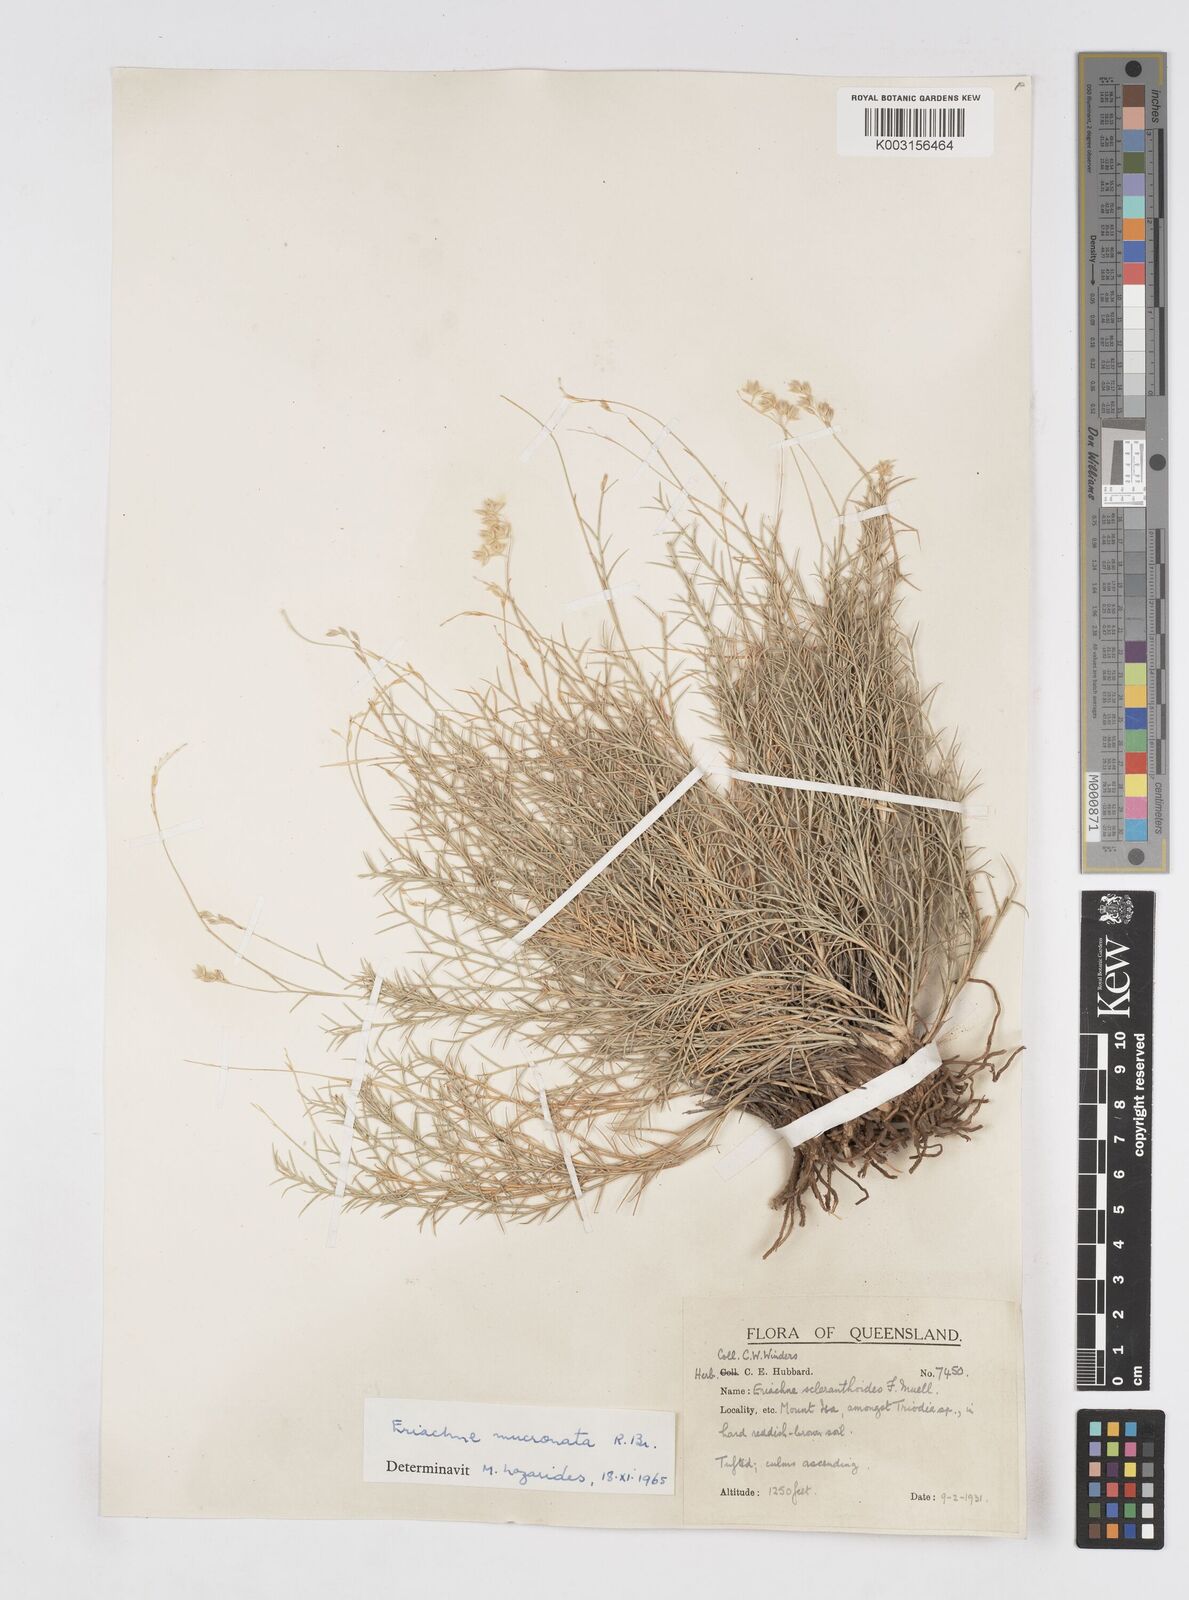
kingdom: Plantae
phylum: Tracheophyta
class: Liliopsida
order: Poales
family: Poaceae
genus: Eriachne
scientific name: Eriachne mucronata
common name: Mountain wanderrie grass
